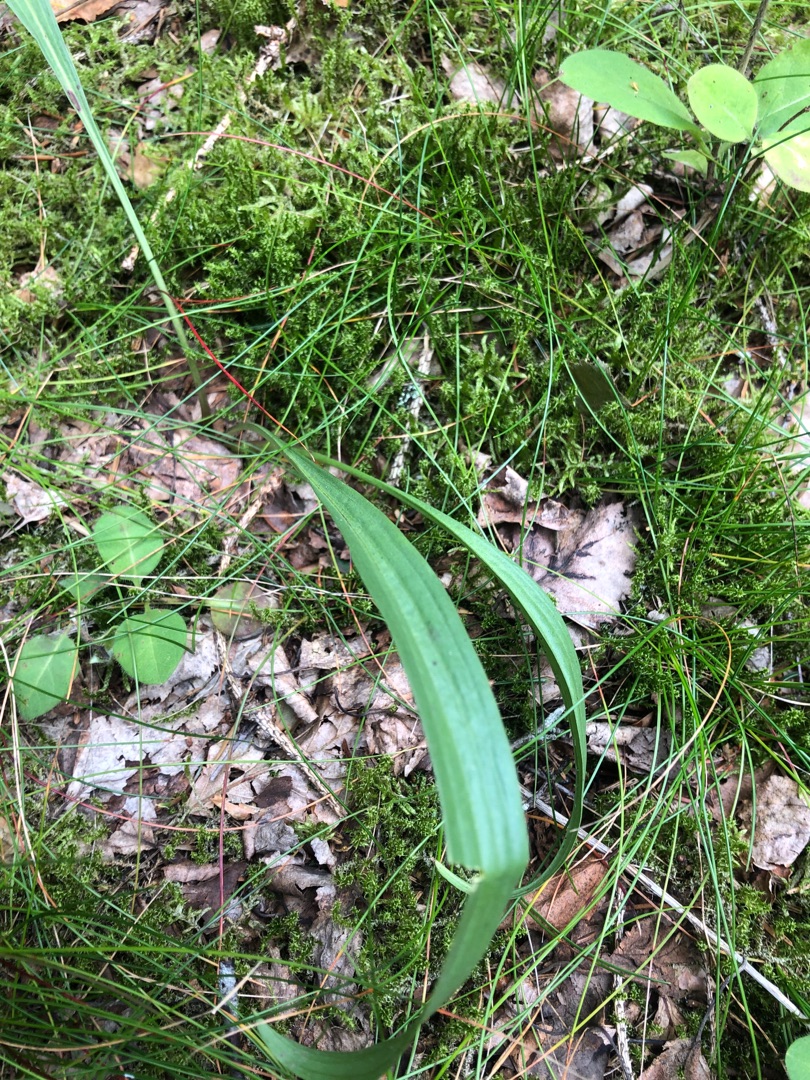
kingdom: Plantae
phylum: Tracheophyta
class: Magnoliopsida
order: Asterales
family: Asteraceae
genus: Scorzonera
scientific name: Scorzonera humilis
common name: Lav skorsoner
